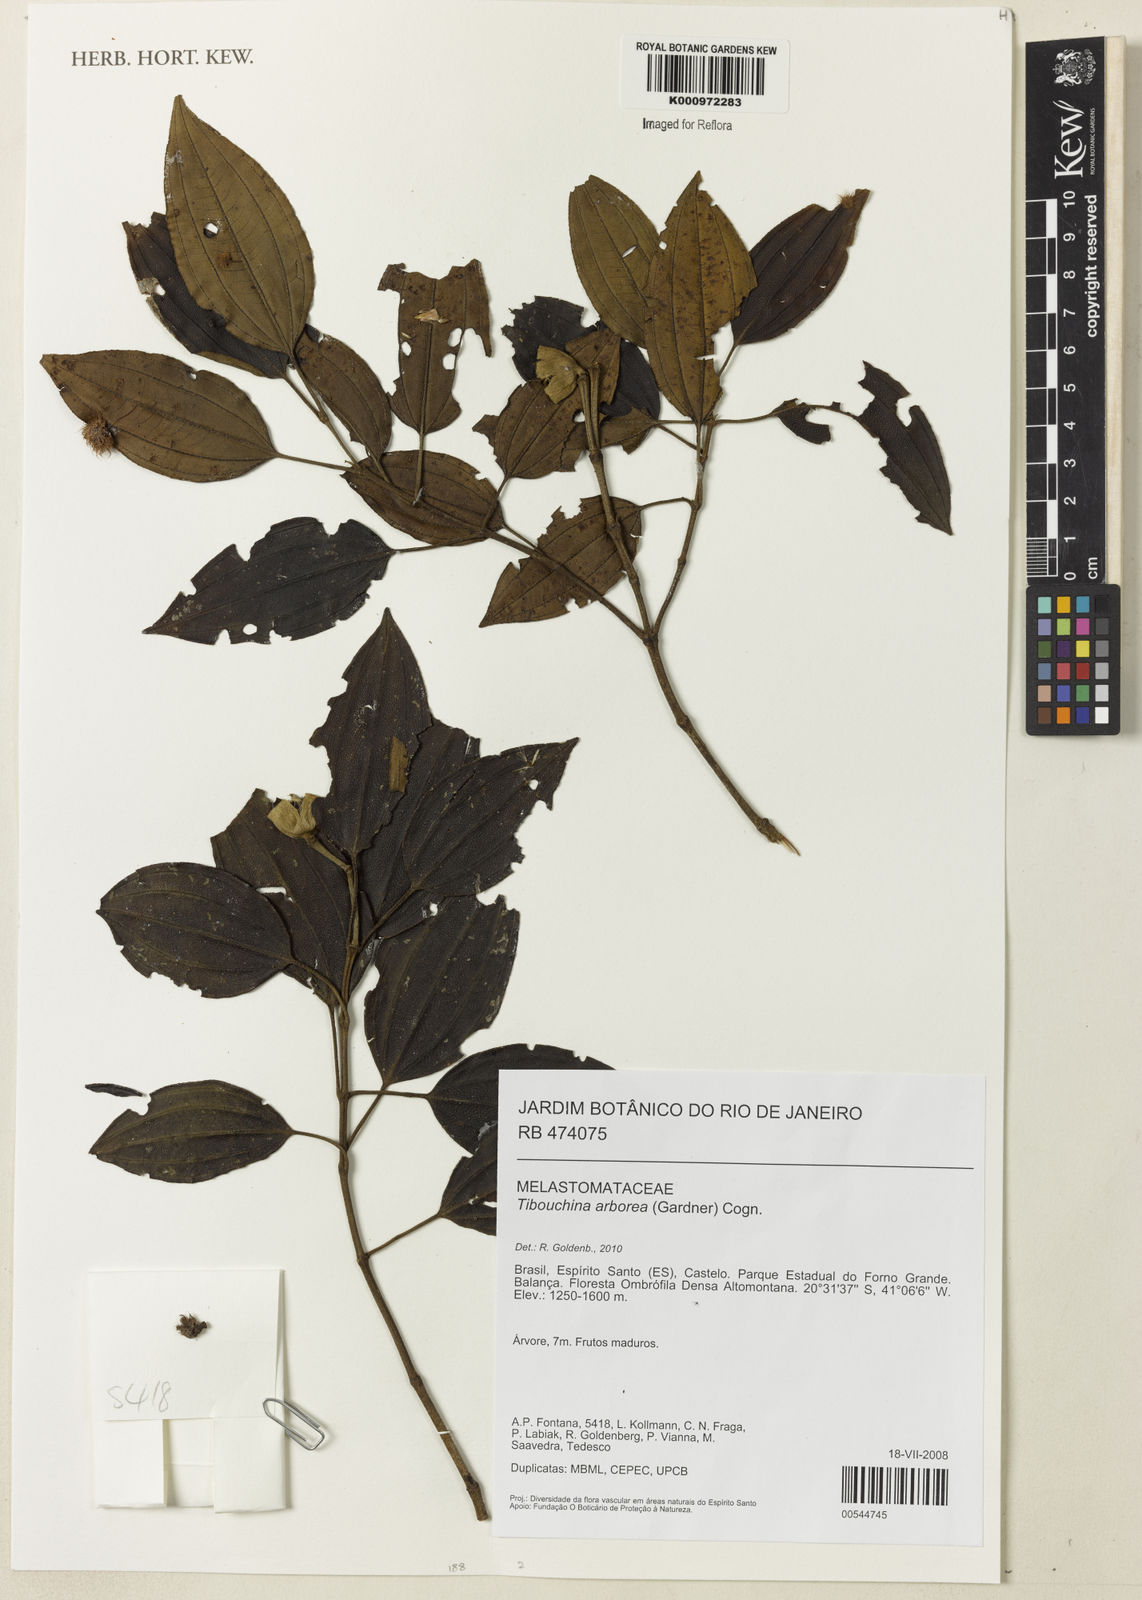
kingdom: Plantae
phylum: Tracheophyta
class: Magnoliopsida
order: Myrtales
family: Melastomataceae
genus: Pleroma
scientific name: Pleroma arboreum
